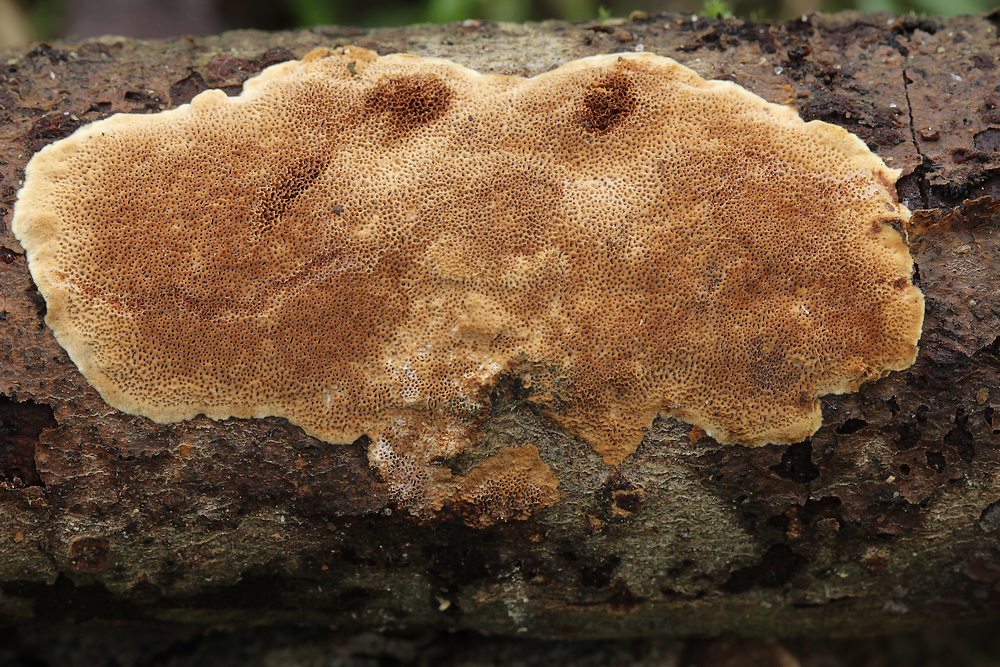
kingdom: Fungi
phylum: Basidiomycota
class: Agaricomycetes
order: Hymenochaetales
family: Hymenochaetaceae
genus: Fuscoporia
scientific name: Fuscoporia ferrea
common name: skorpe-ildporesvamp
